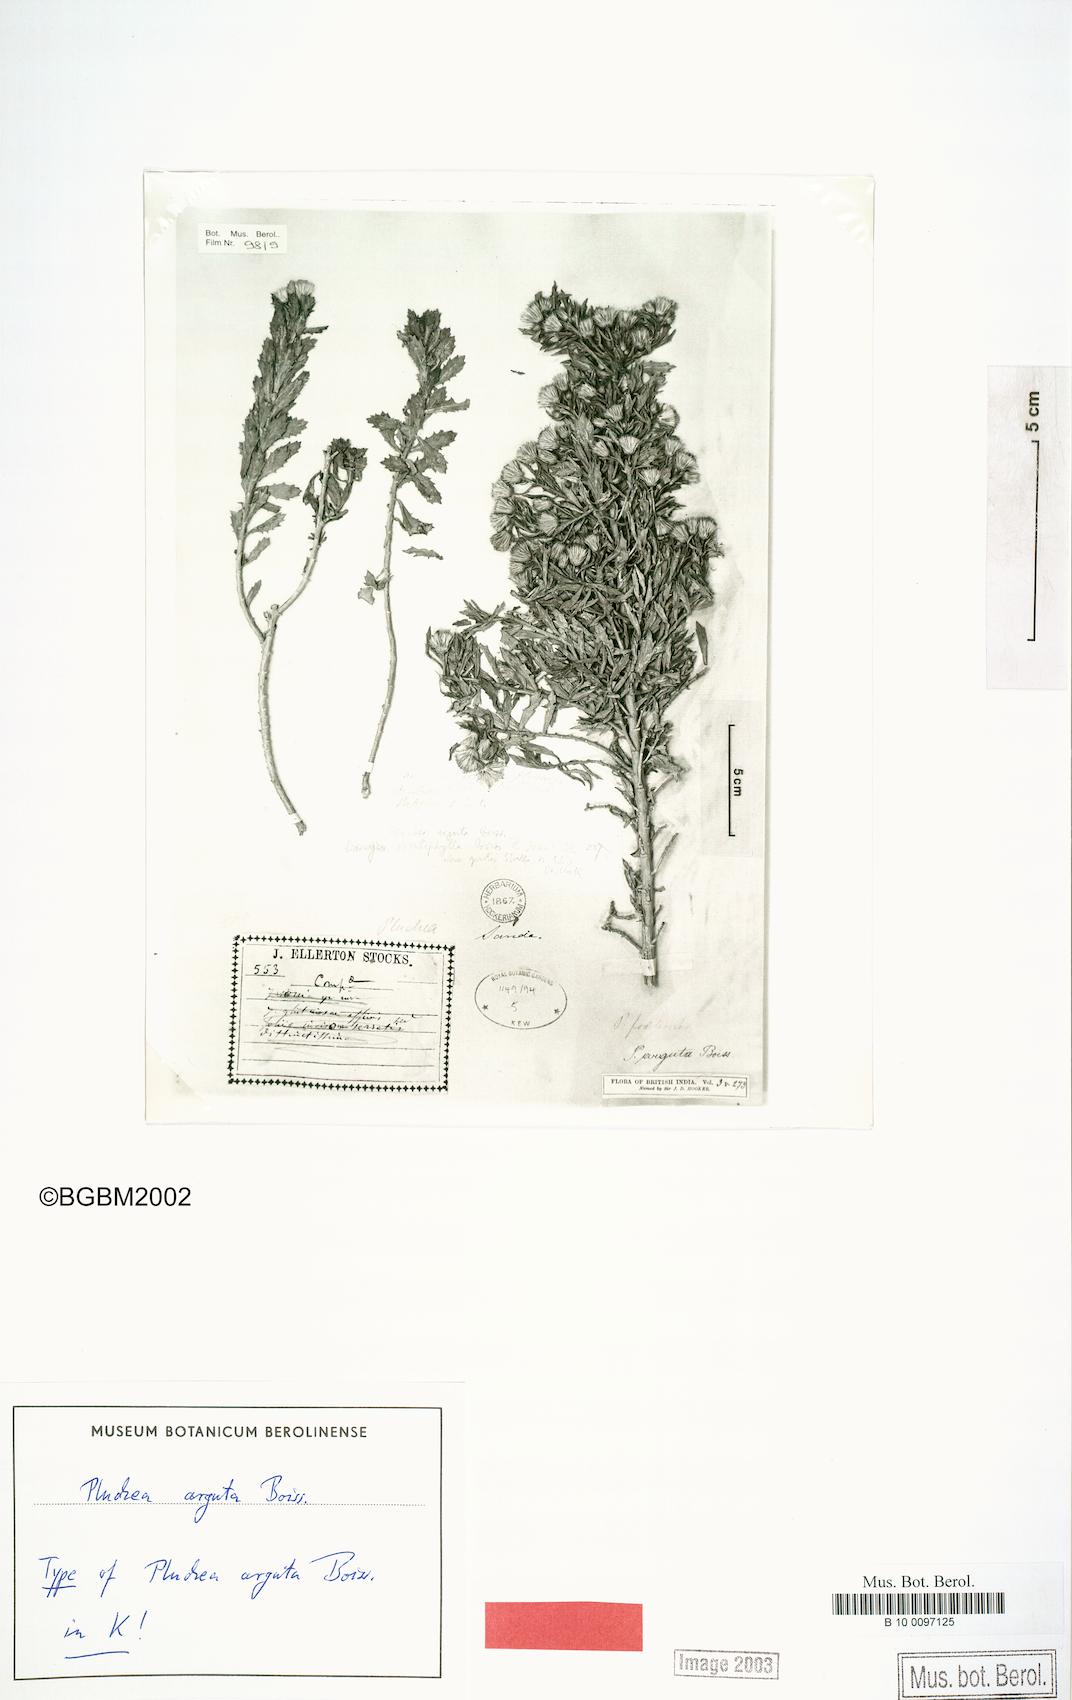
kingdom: Plantae
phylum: Tracheophyta
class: Magnoliopsida
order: Asterales
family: Asteraceae
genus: Pluchea
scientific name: Pluchea arguta
